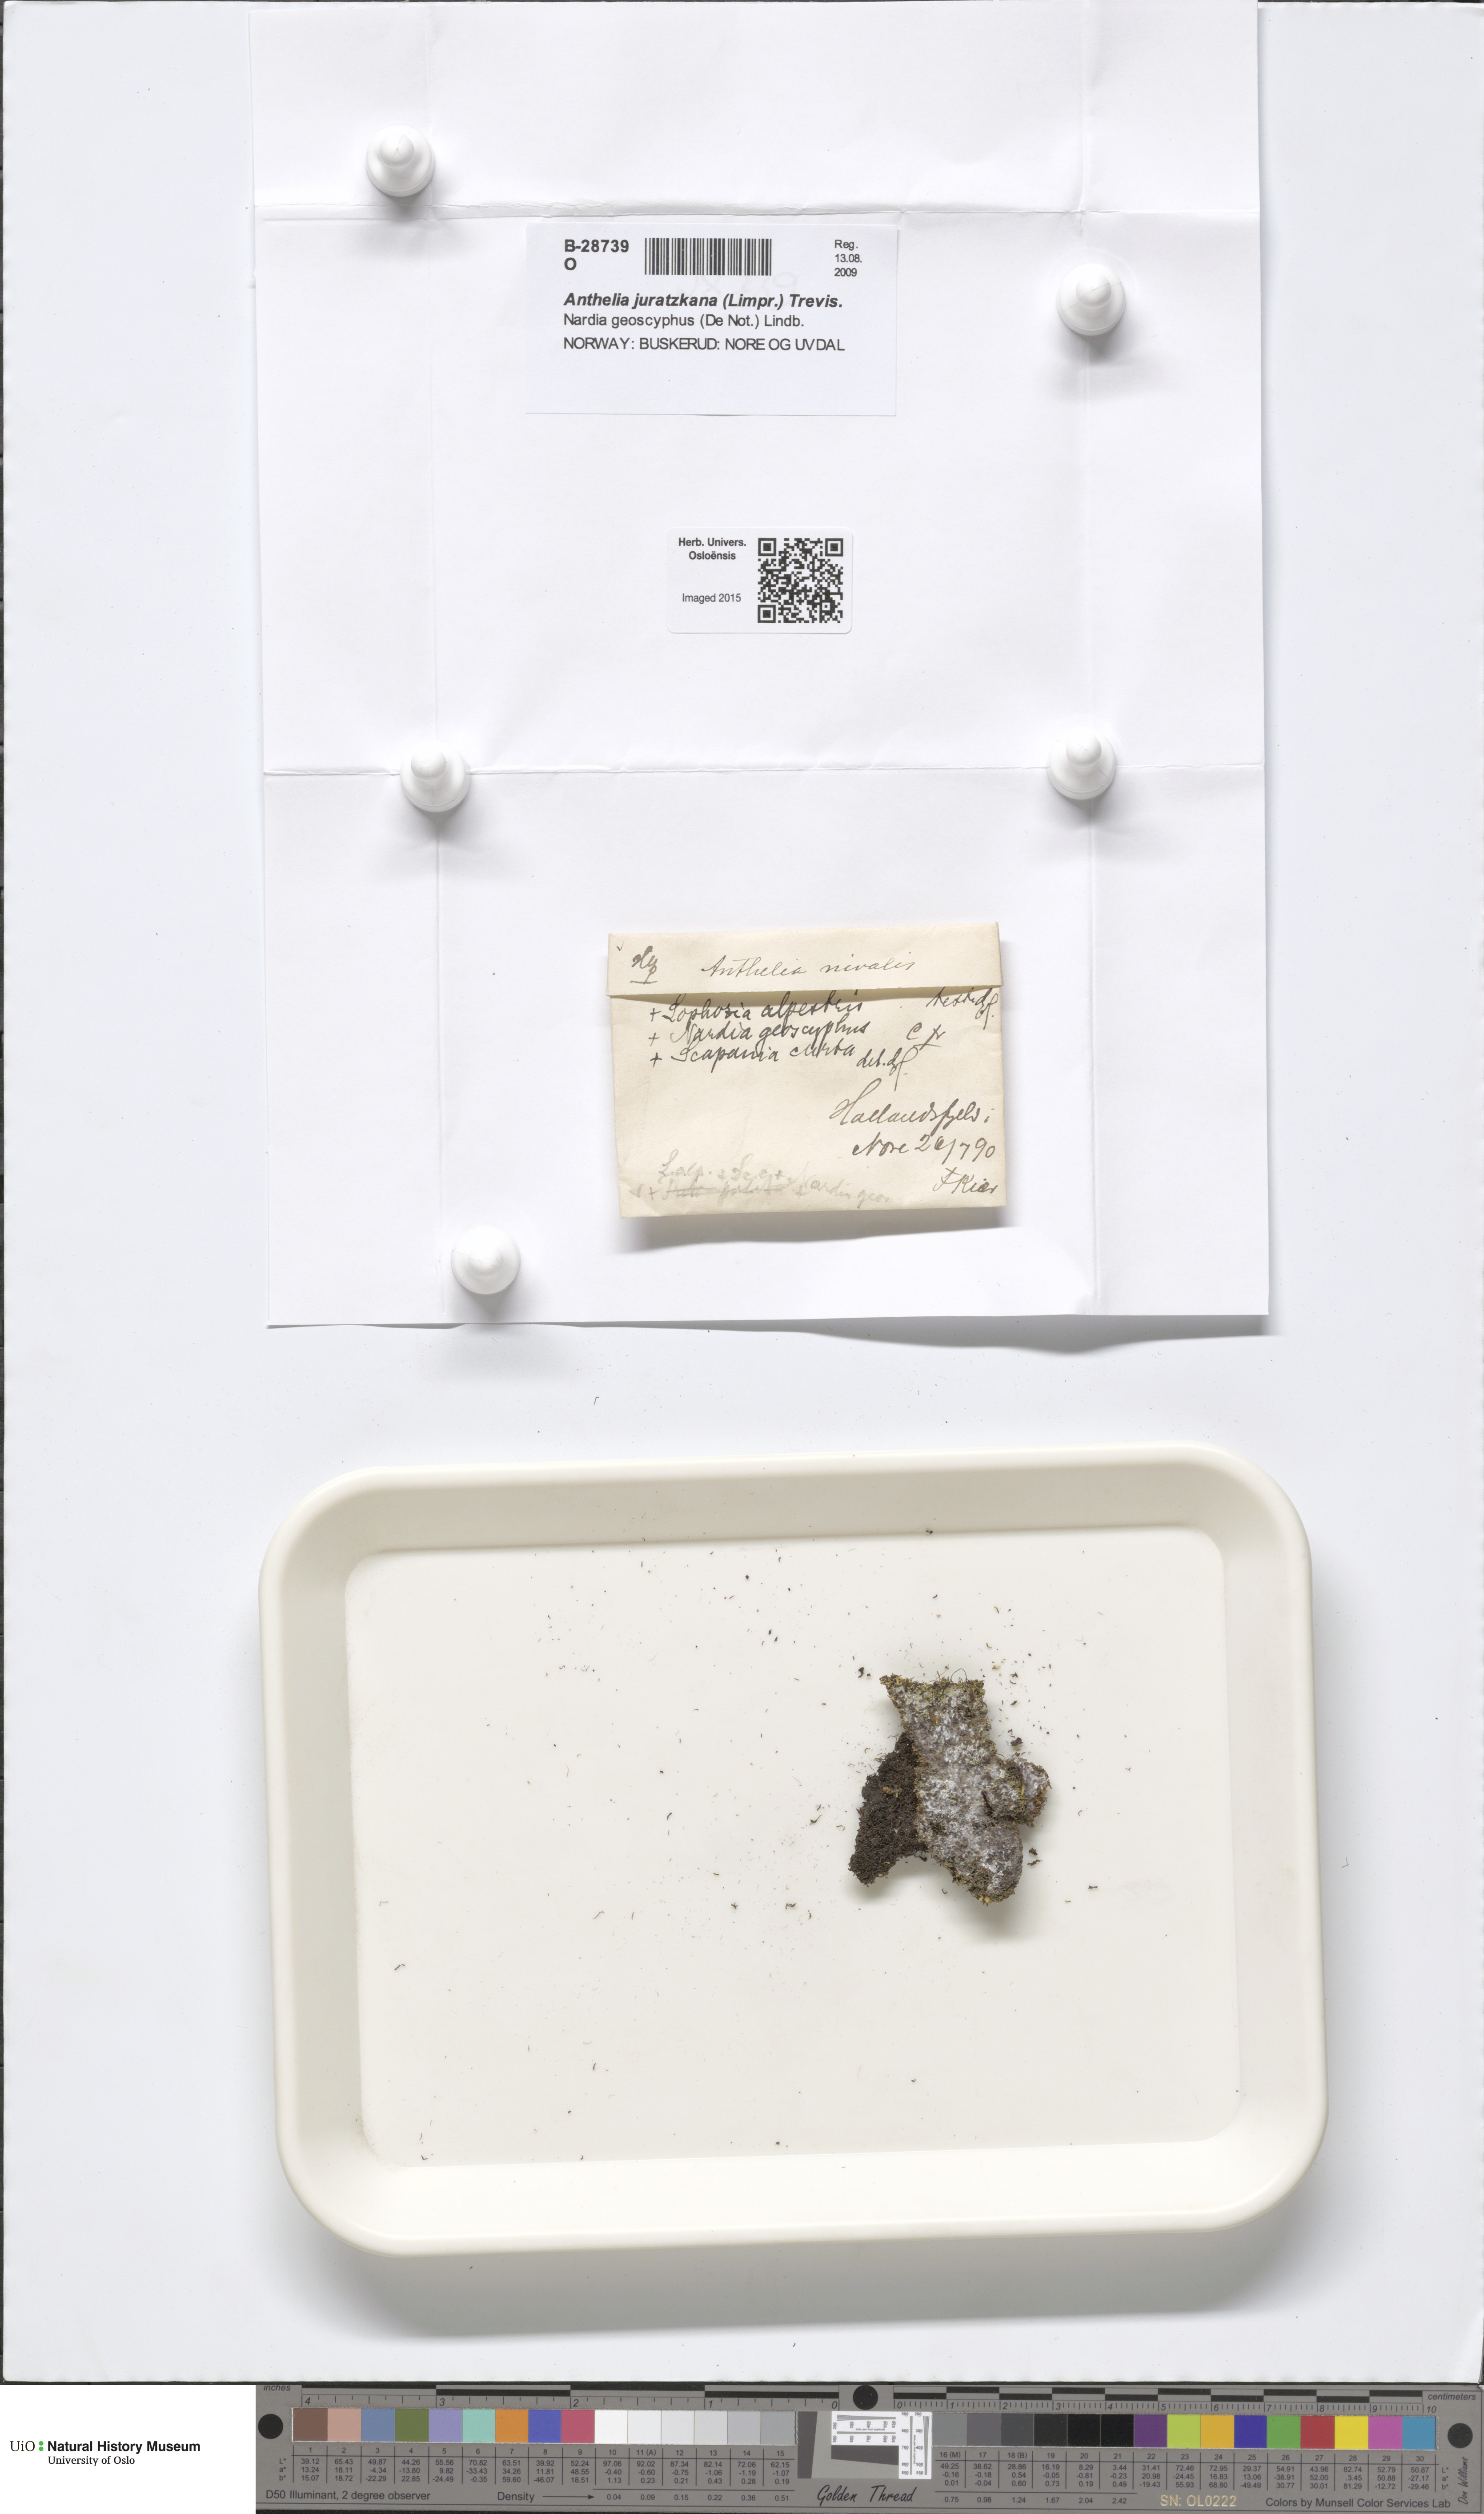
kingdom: Plantae
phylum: Marchantiophyta
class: Jungermanniopsida
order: Jungermanniales
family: Antheliaceae
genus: Anthelia
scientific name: Anthelia juratzkana
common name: Juratzka s silverwort
